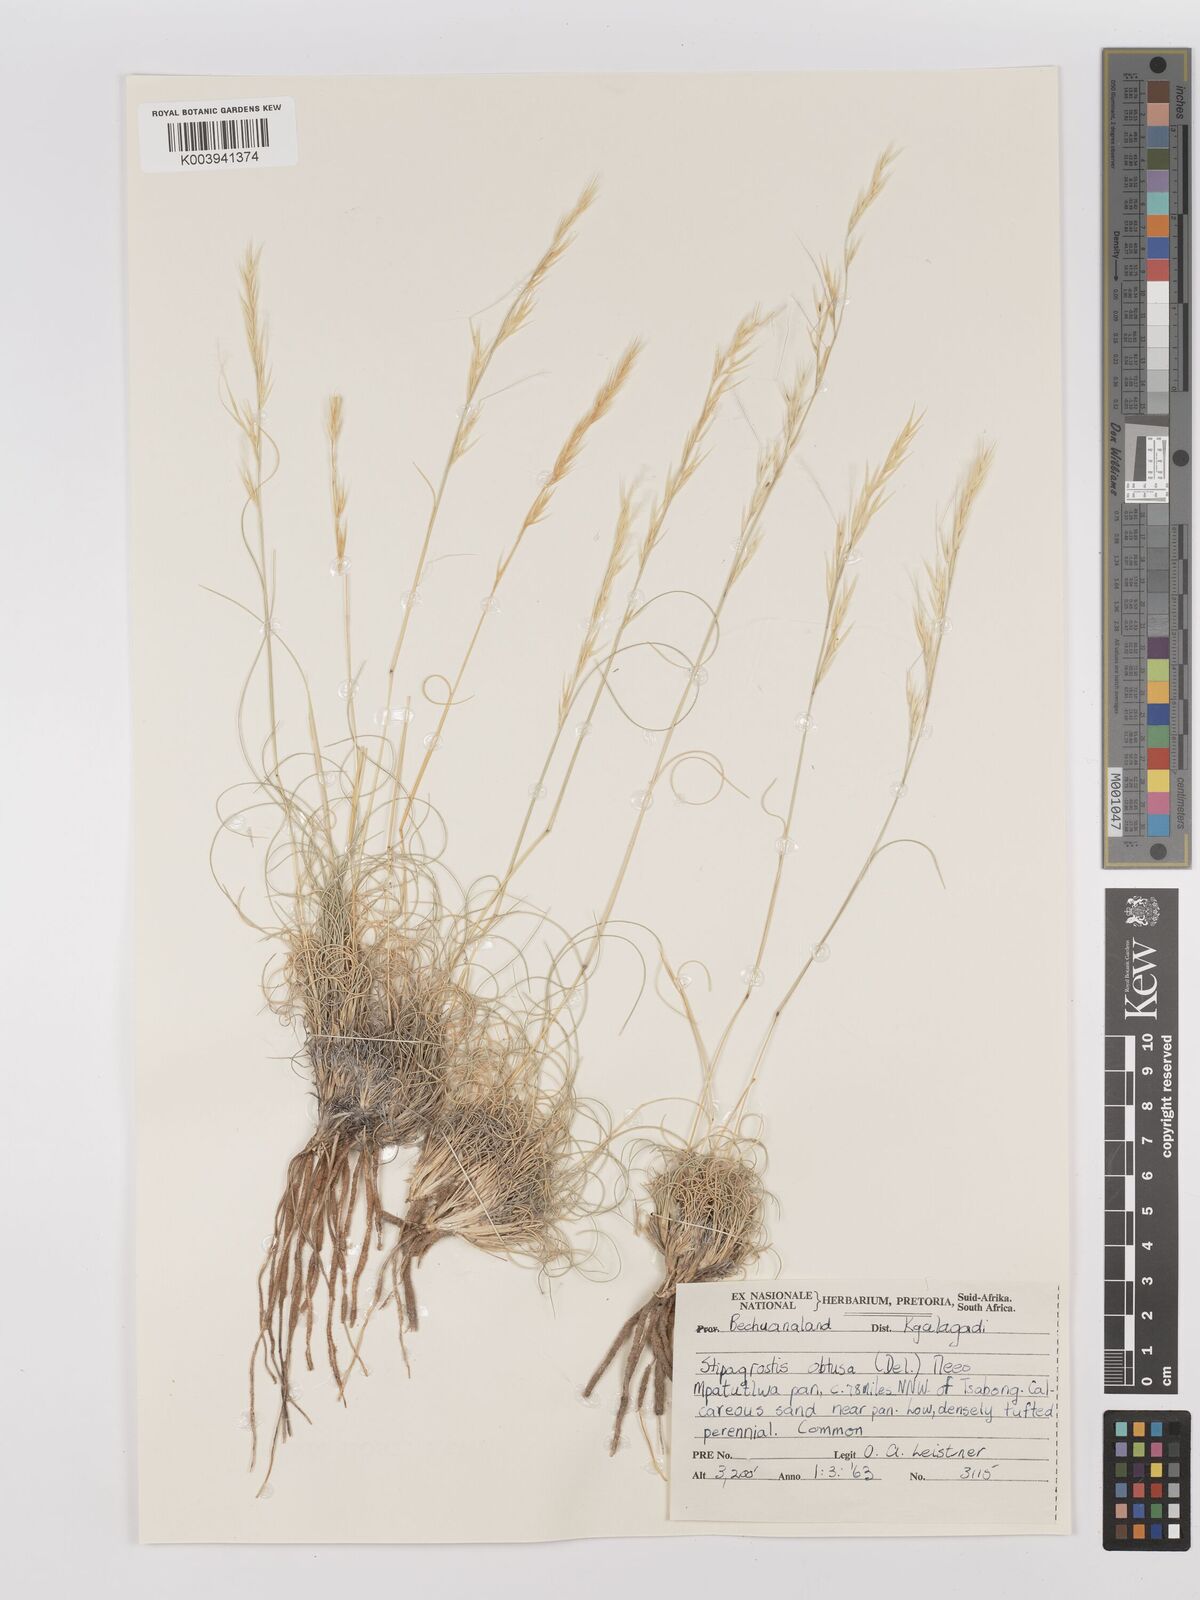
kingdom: Plantae
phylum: Tracheophyta
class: Liliopsida
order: Poales
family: Poaceae
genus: Stipagrostis
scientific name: Stipagrostis obtusa
